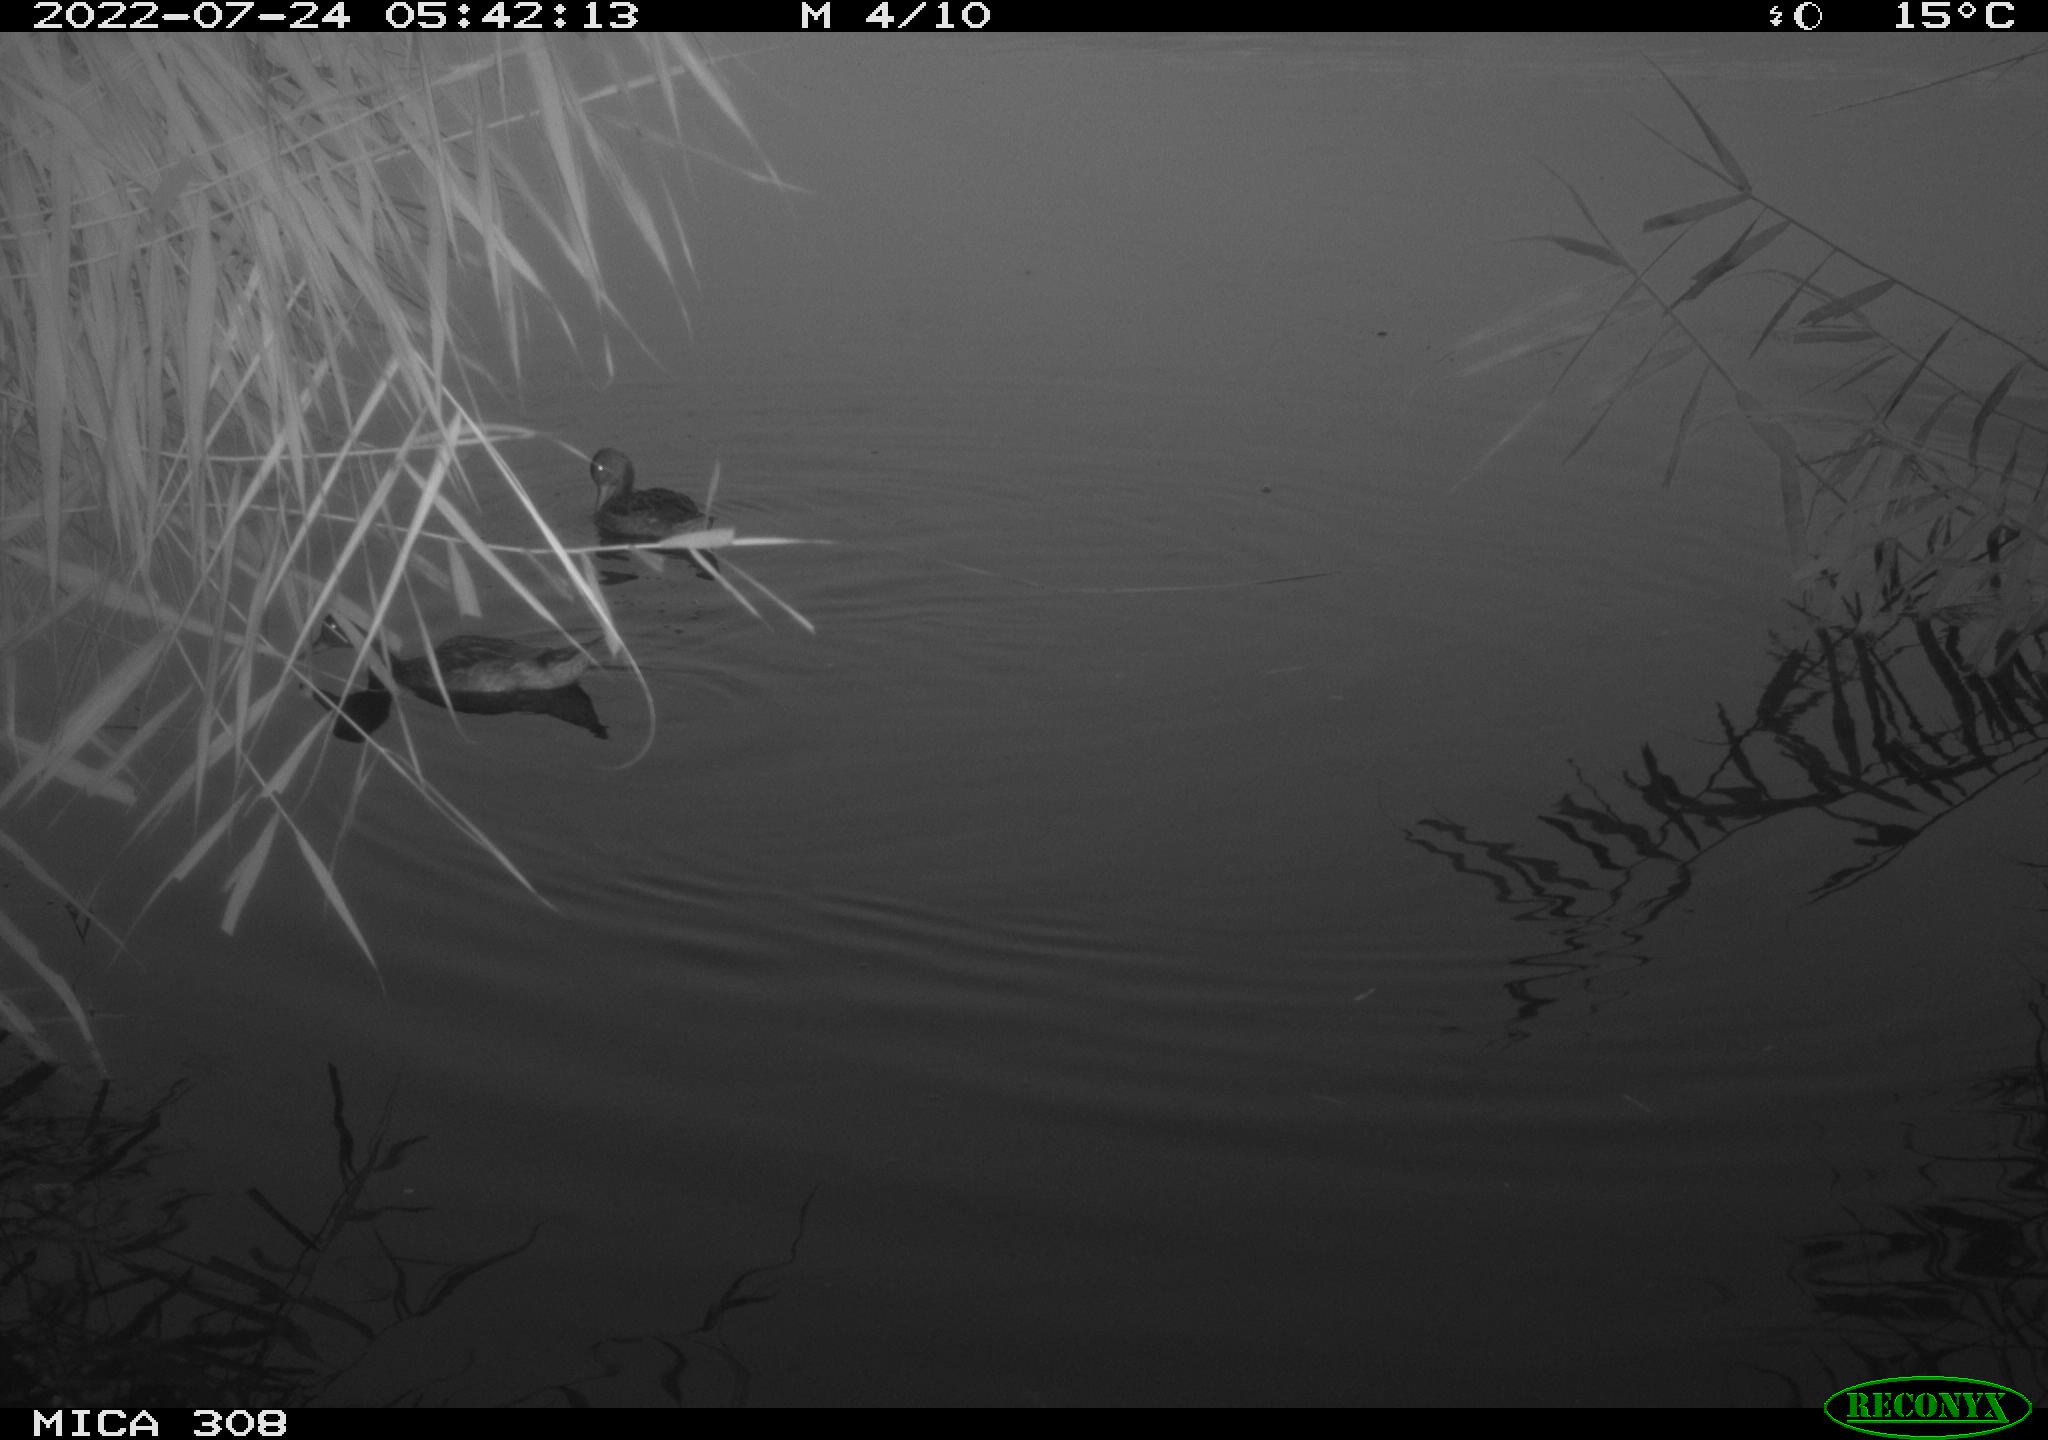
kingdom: Animalia
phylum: Chordata
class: Aves
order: Gruiformes
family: Rallidae
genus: Gallinula
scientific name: Gallinula chloropus
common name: Common moorhen
